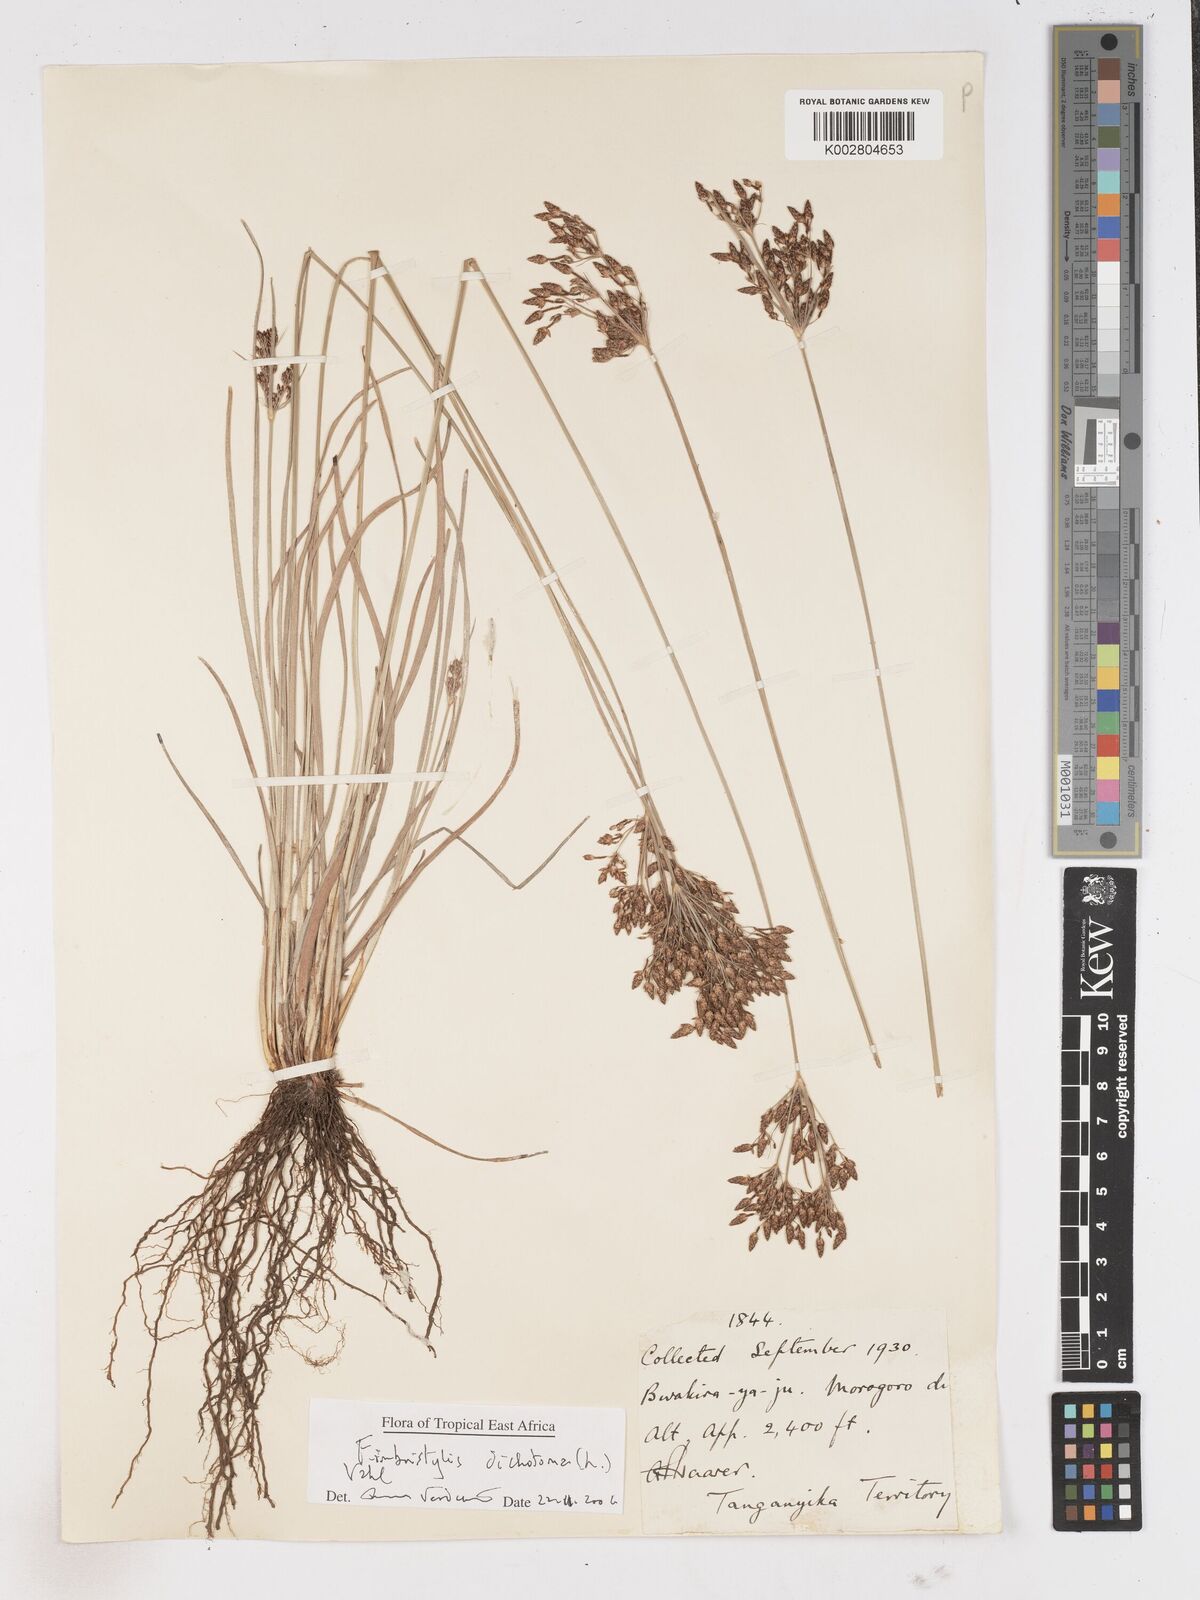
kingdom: Plantae
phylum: Tracheophyta
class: Liliopsida
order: Poales
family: Cyperaceae
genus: Fimbristylis
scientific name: Fimbristylis dichotoma
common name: Forked fimbry
